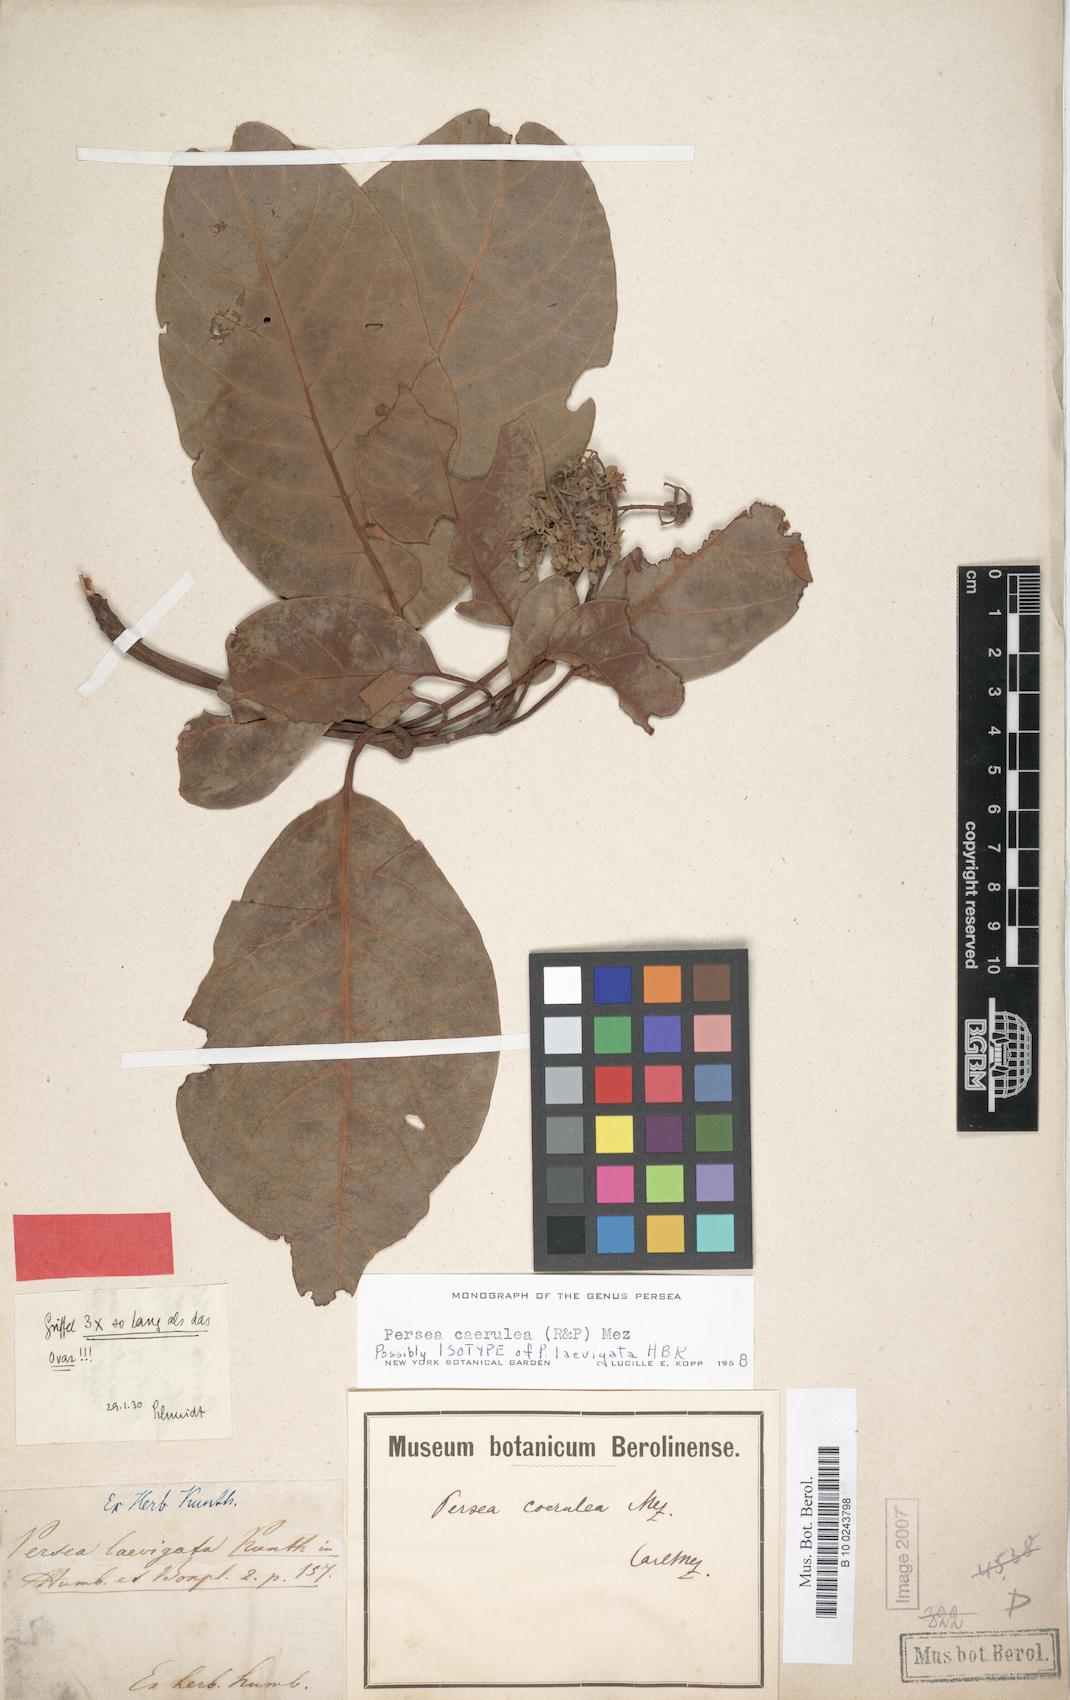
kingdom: Plantae
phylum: Tracheophyta
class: Magnoliopsida
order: Laurales
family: Lauraceae
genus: Persea
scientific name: Persea caerulea
